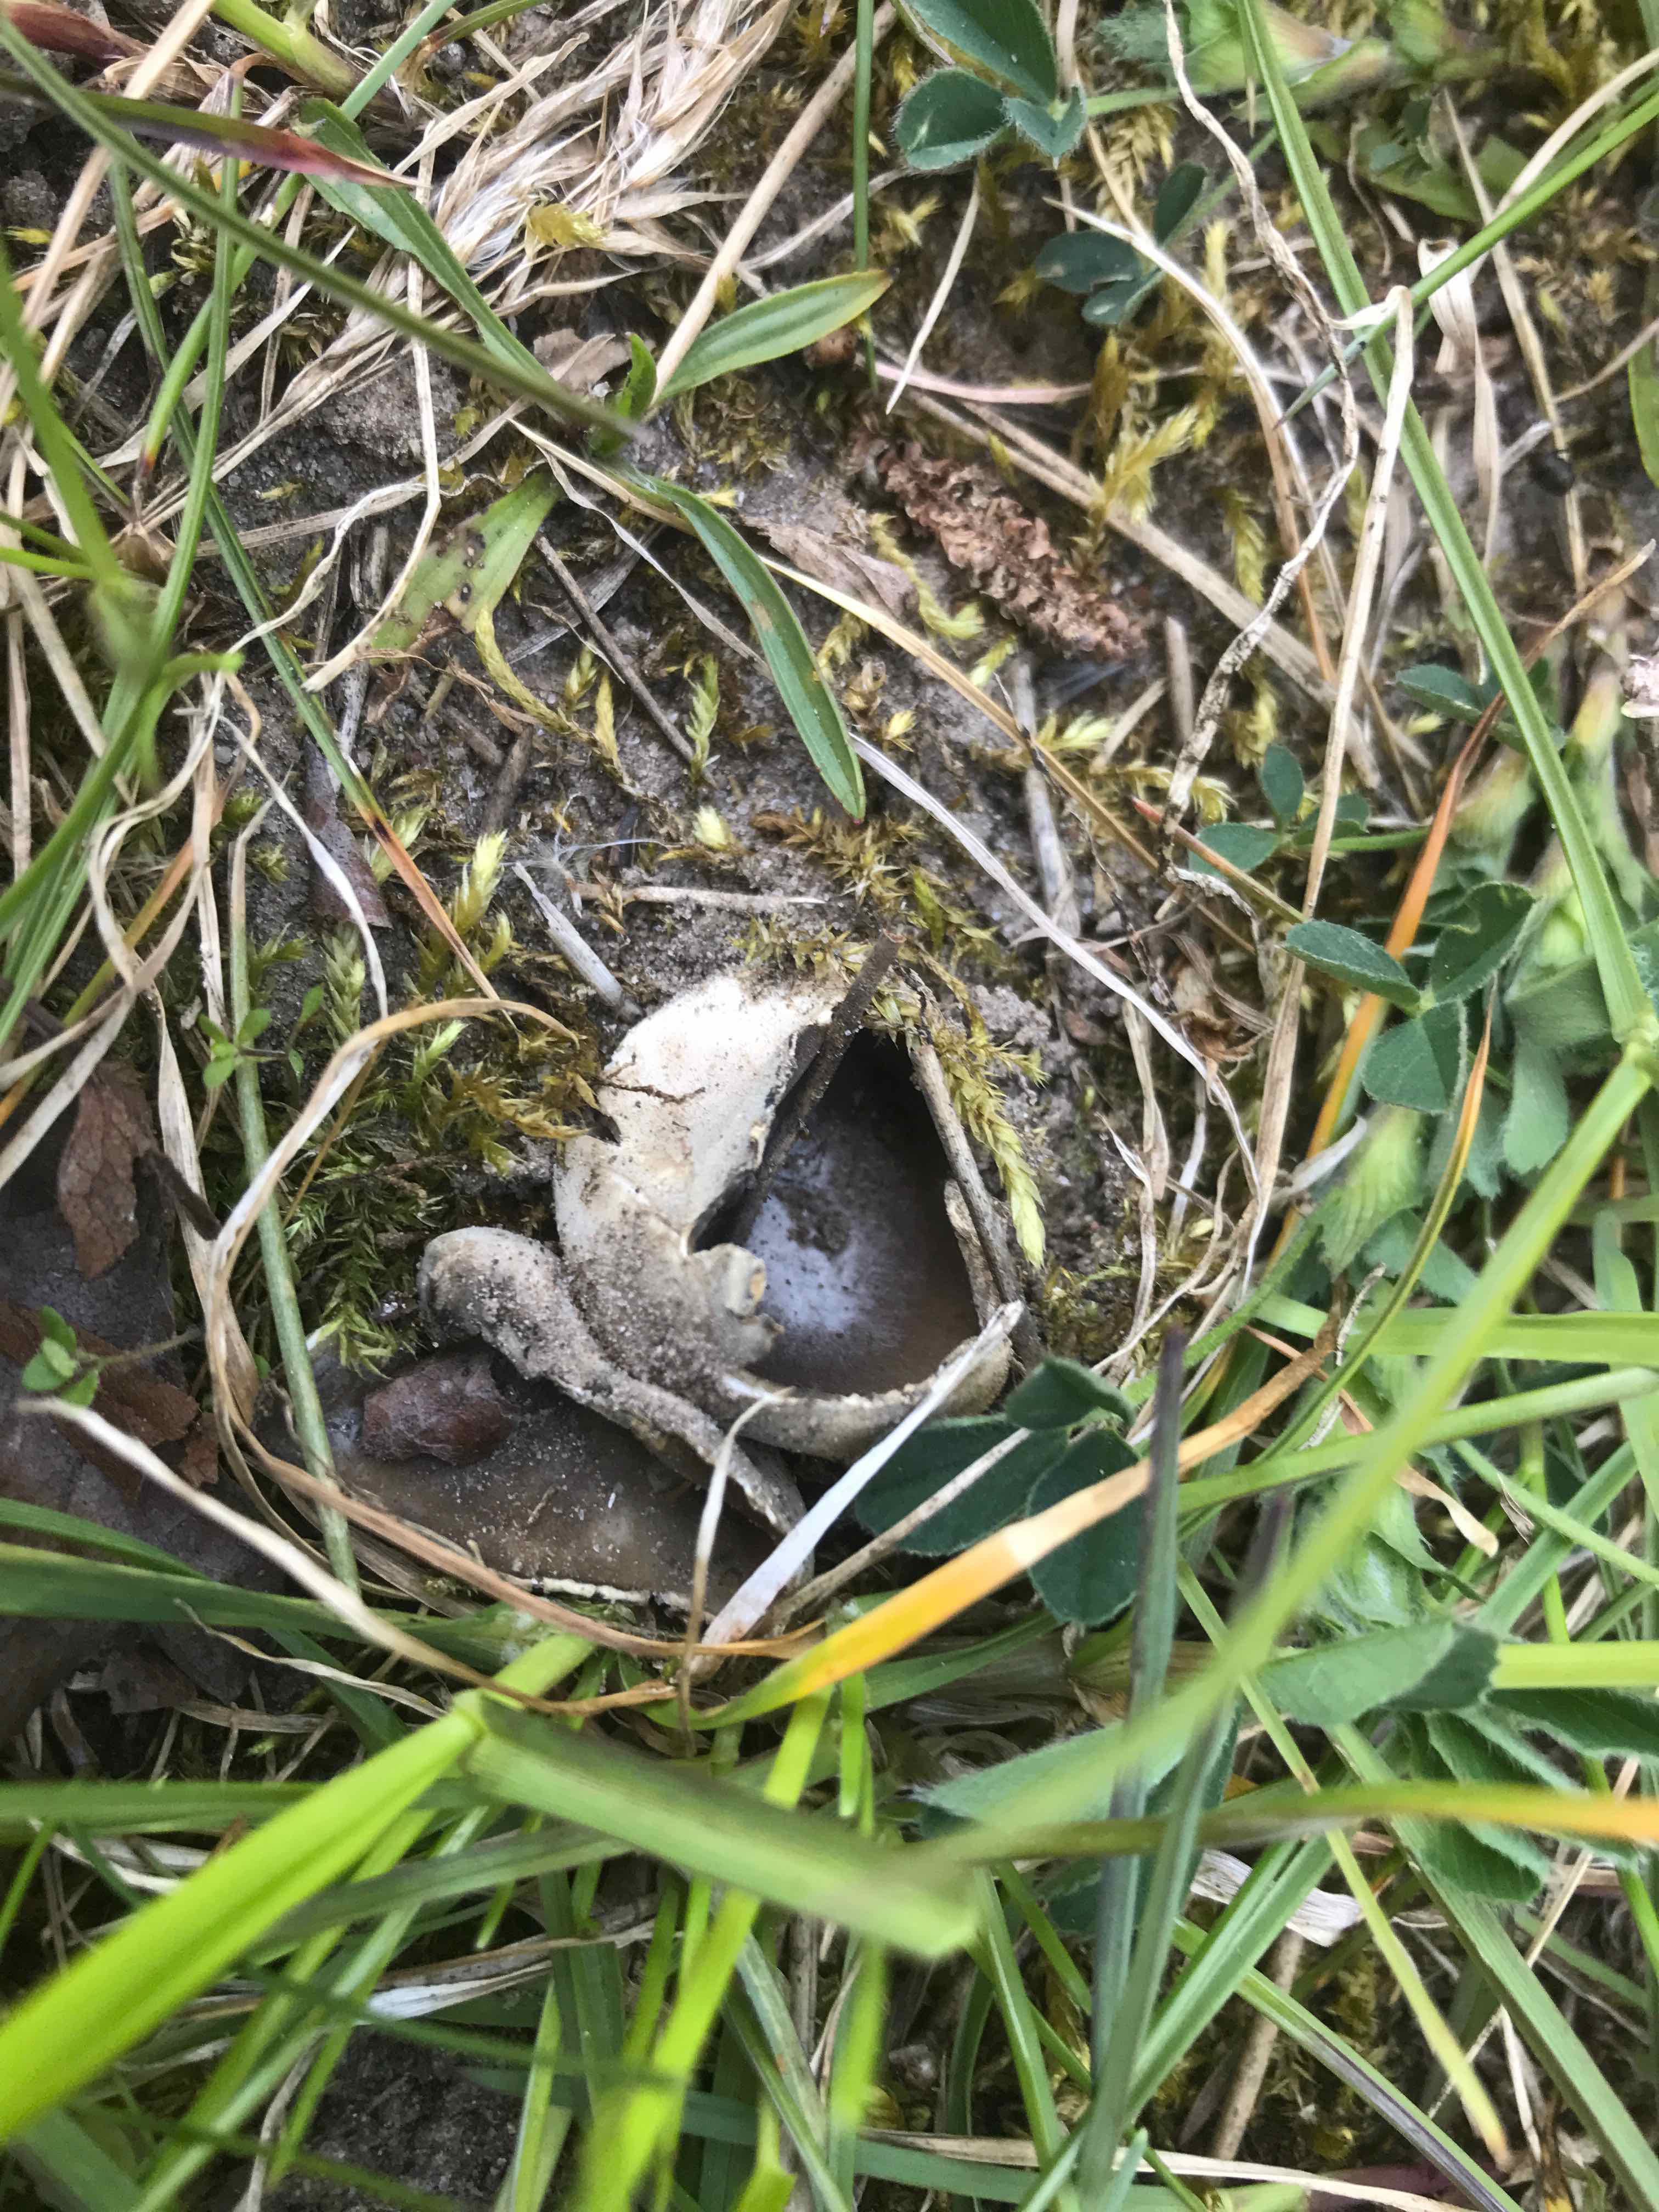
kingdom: Fungi
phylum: Ascomycota
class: Pezizomycetes
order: Pezizales
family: Helvellaceae
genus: Dissingia
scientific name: Dissingia leucomelaena
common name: sorthvid foldhat
